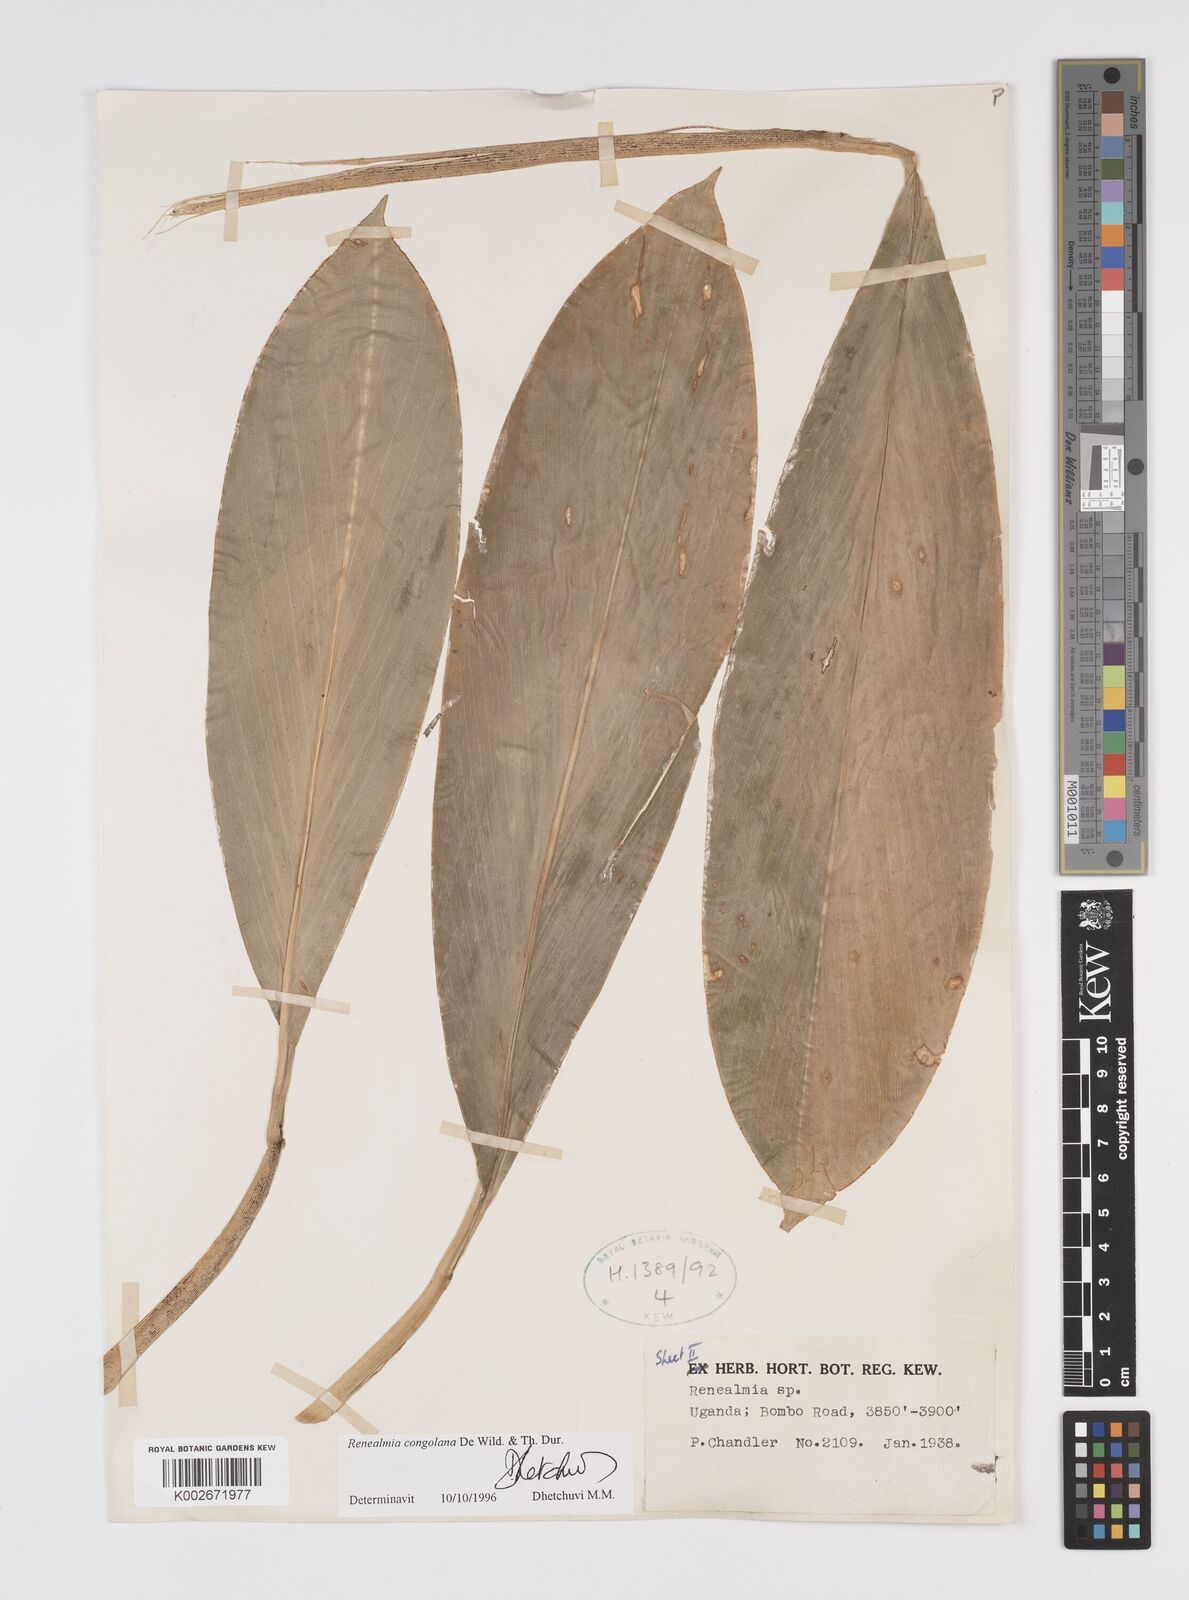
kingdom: Plantae
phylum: Tracheophyta
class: Liliopsida
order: Zingiberales
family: Zingiberaceae
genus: Renealmia
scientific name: Renealmia congolana
